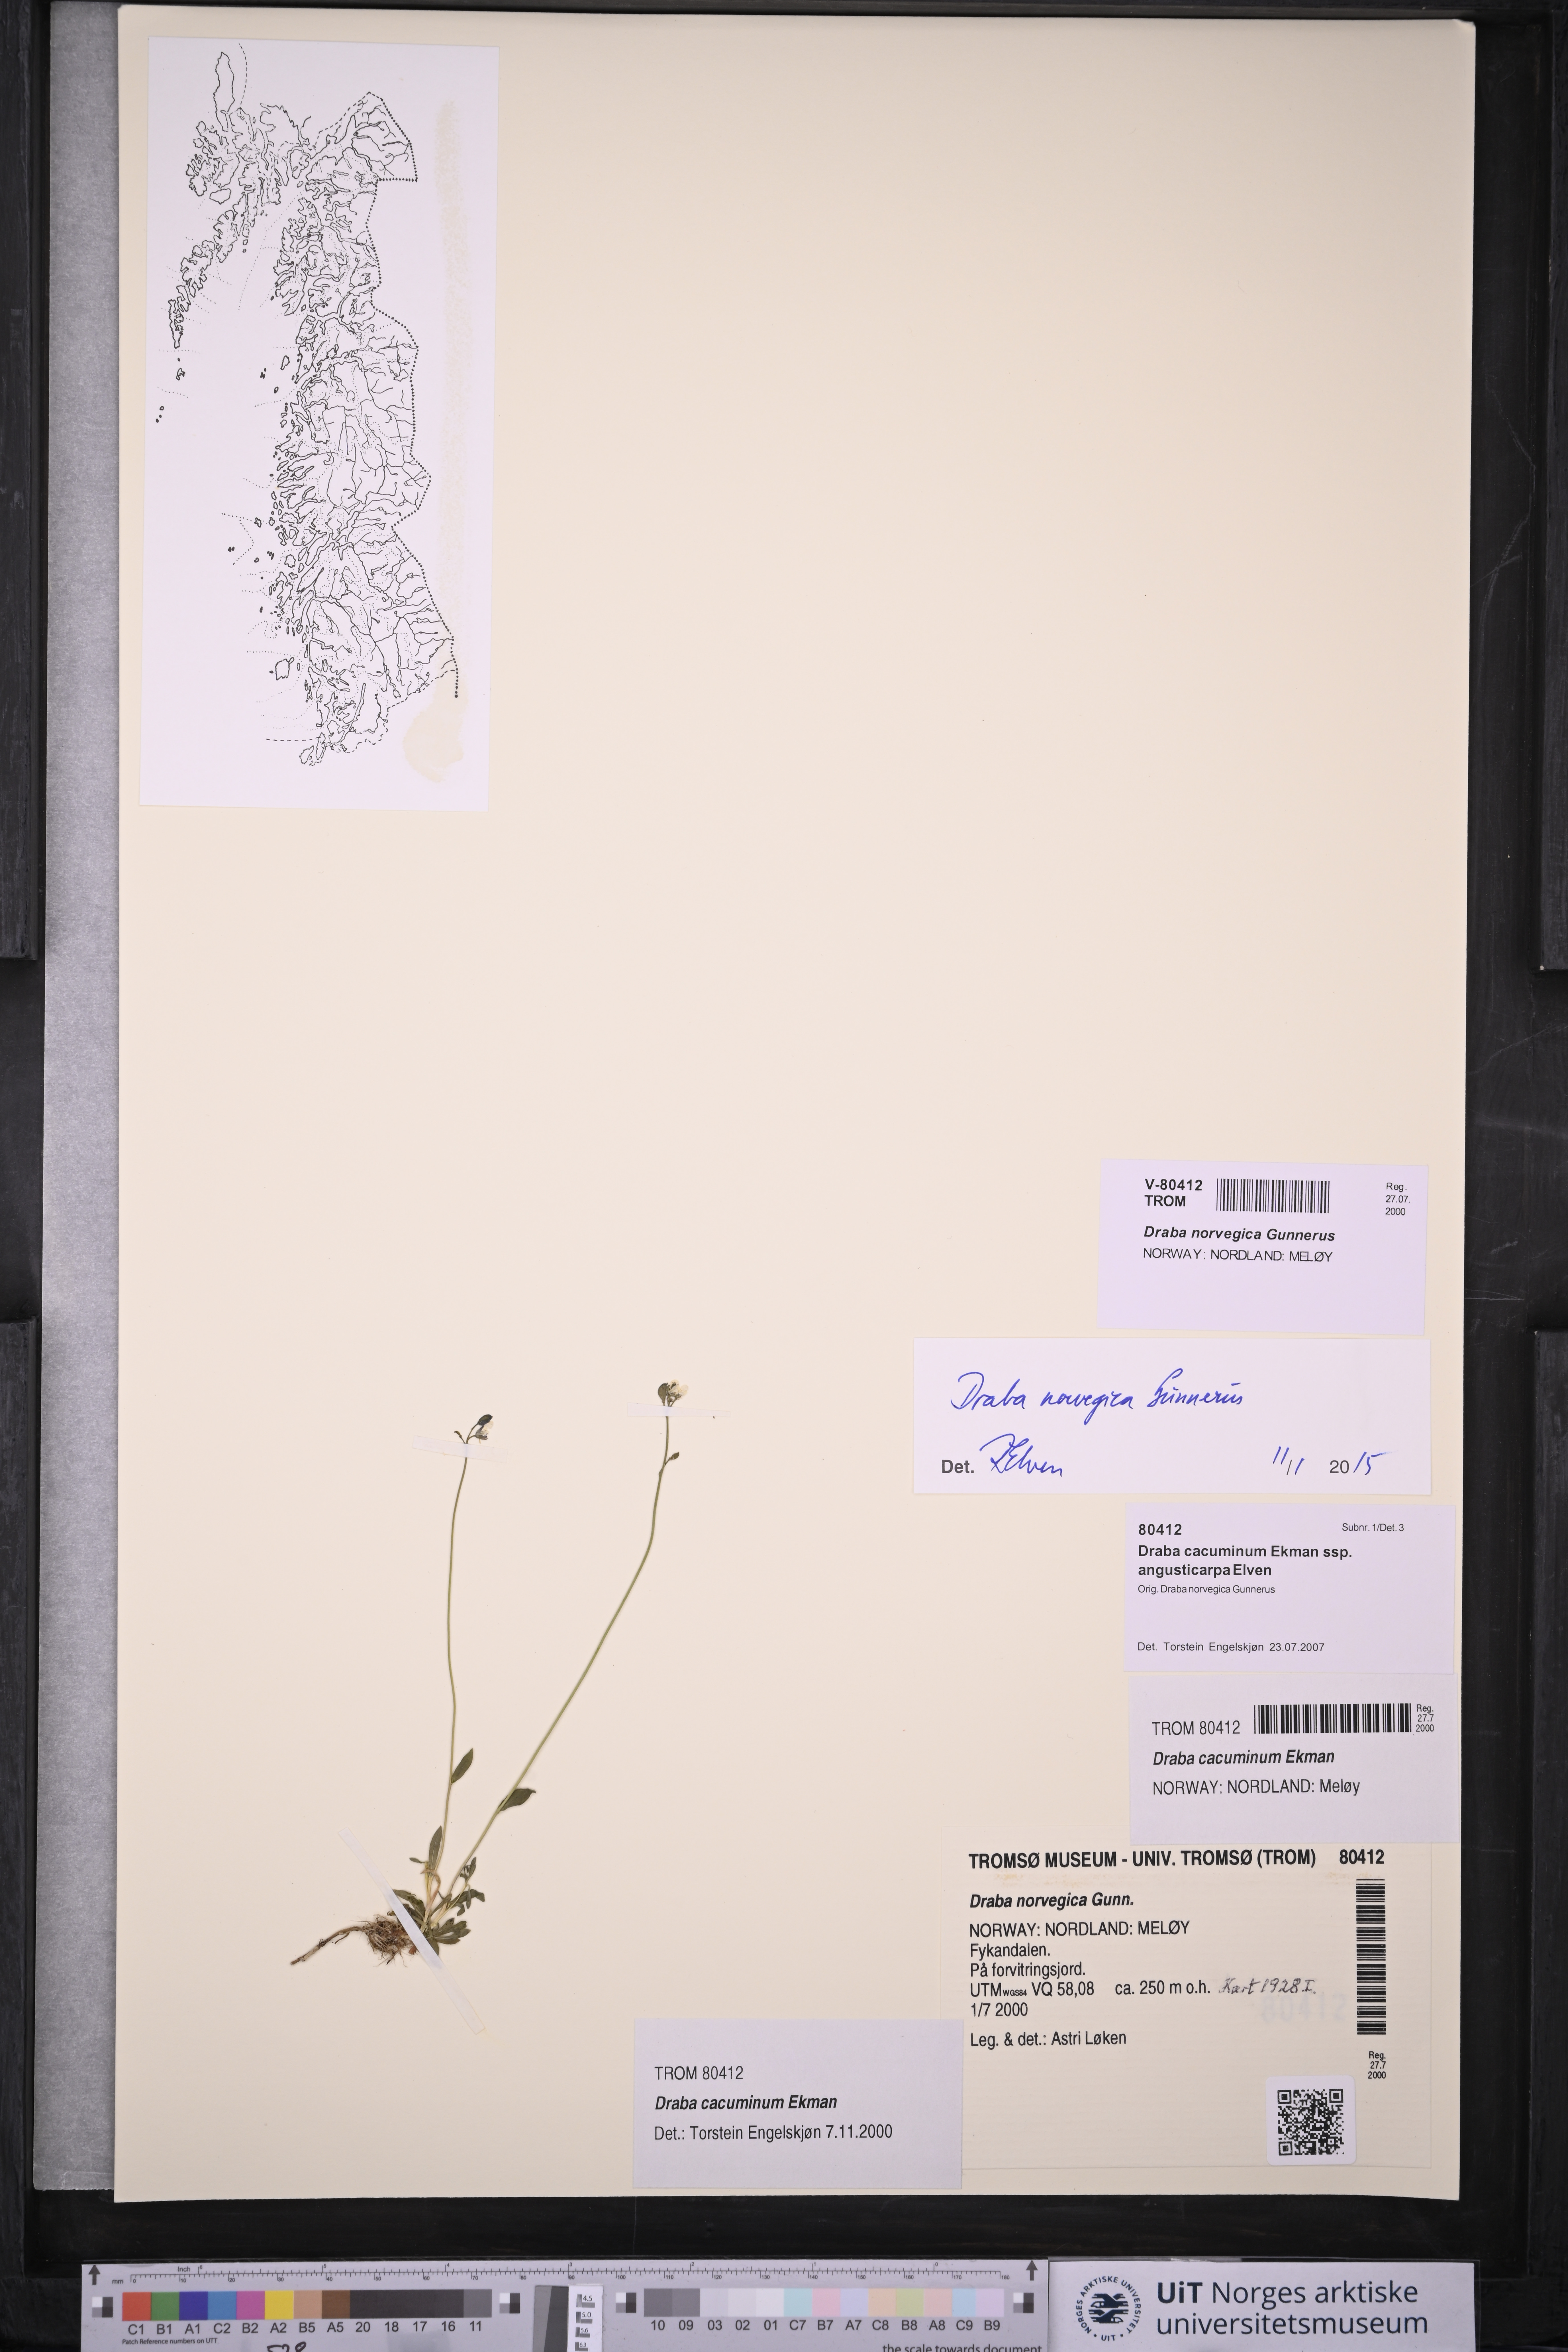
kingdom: Plantae
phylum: Tracheophyta
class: Magnoliopsida
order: Brassicales
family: Brassicaceae
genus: Draba
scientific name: Draba norvegica
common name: Rock whitlowgrass
